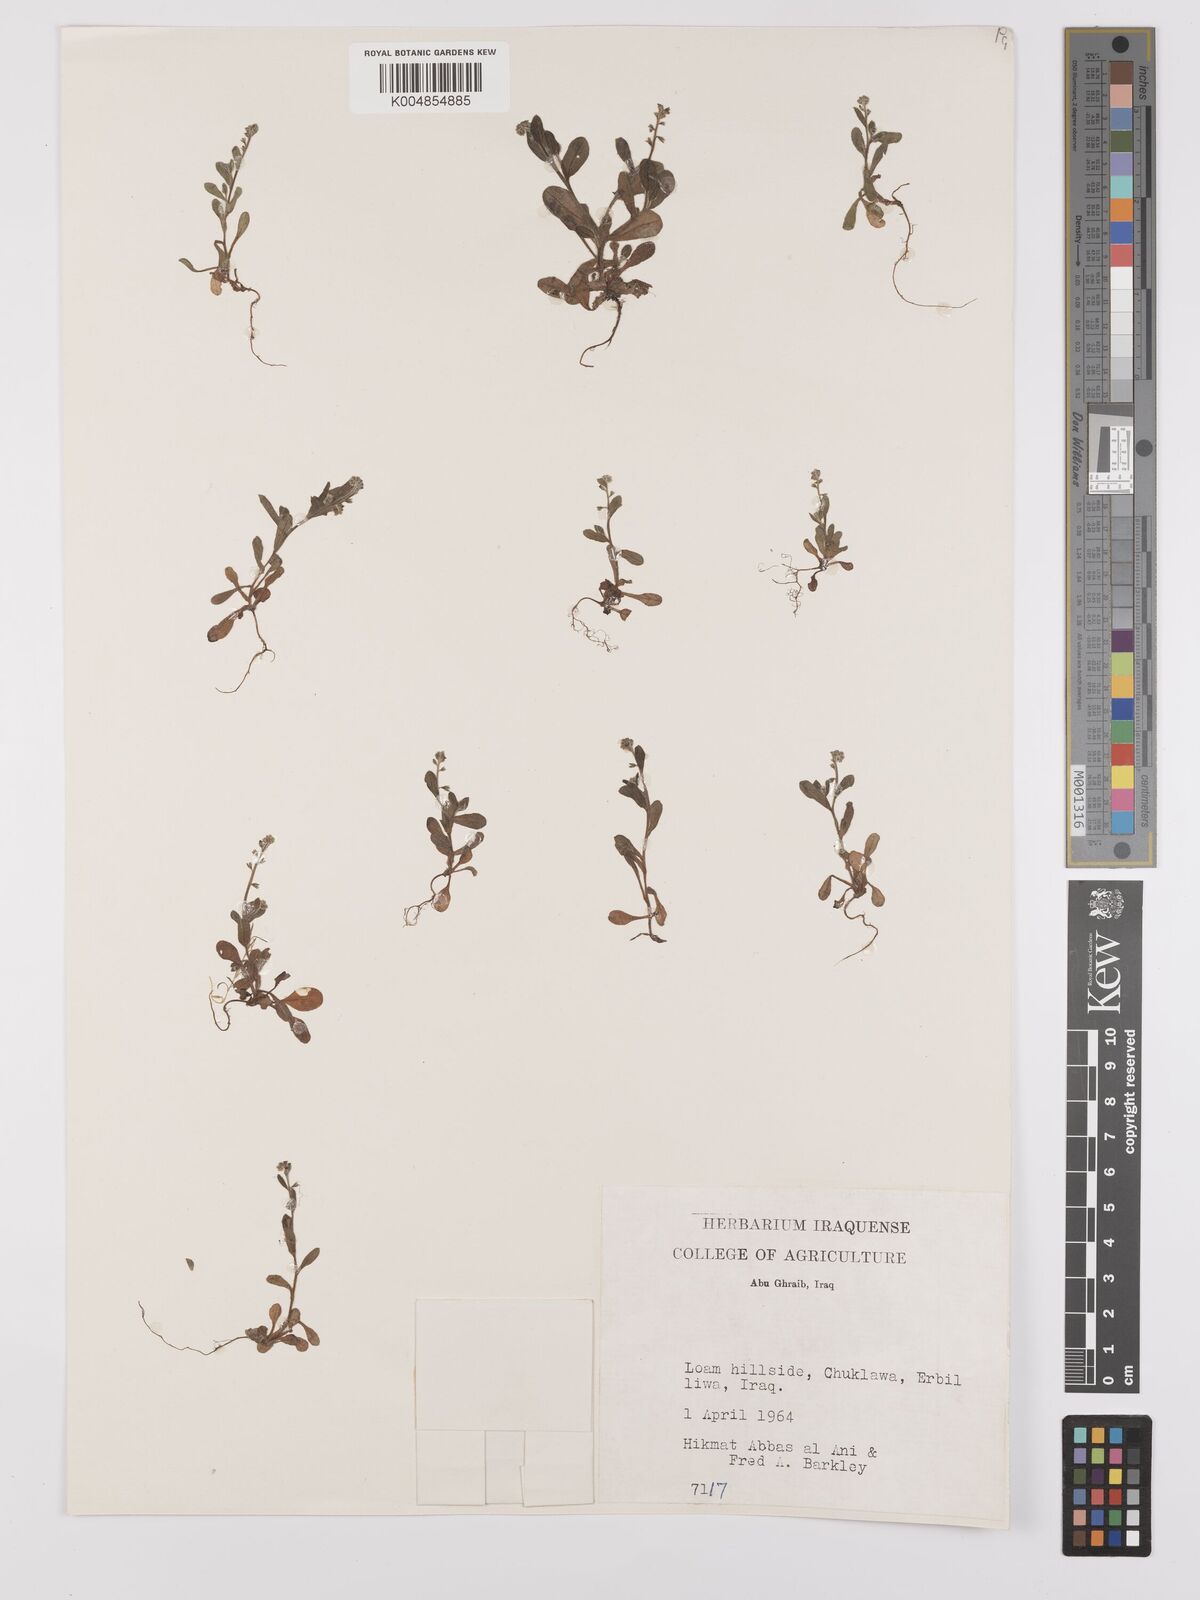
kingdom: Plantae
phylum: Tracheophyta
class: Magnoliopsida
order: Boraginales
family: Boraginaceae
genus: Myosotis
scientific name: Myosotis
